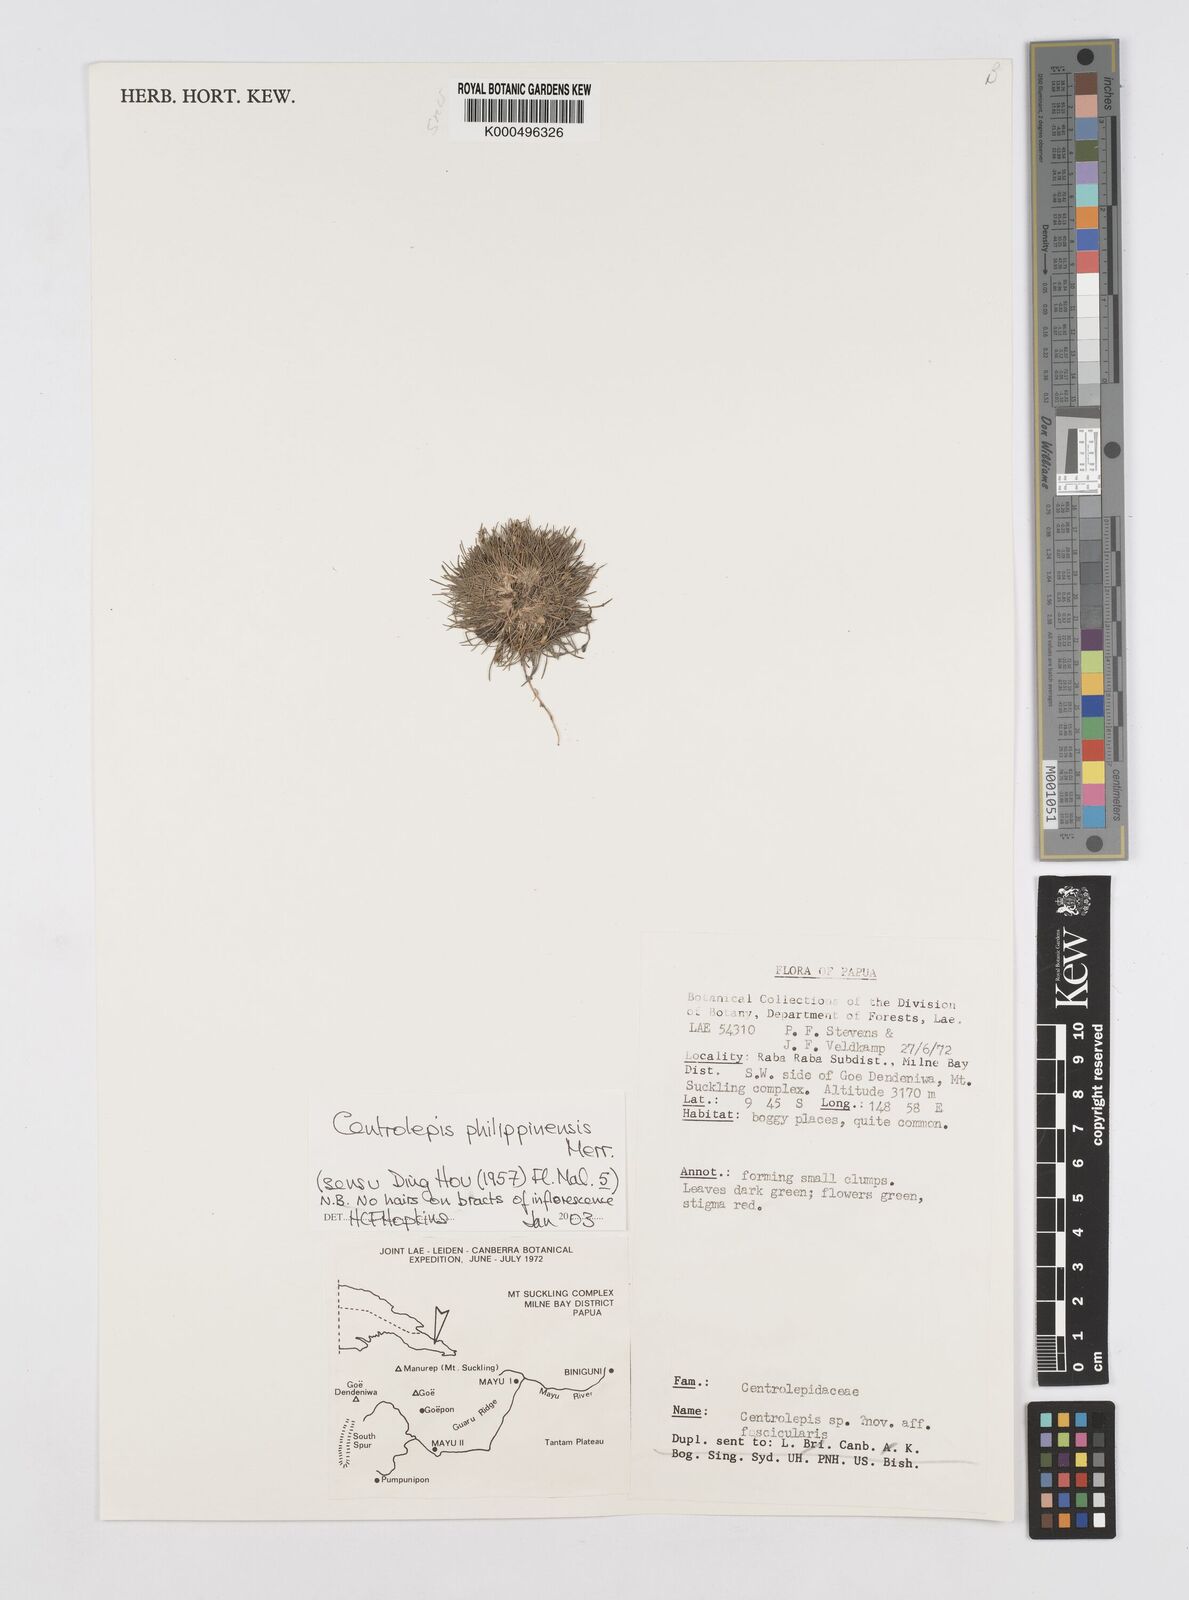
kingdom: Plantae
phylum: Tracheophyta
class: Liliopsida
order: Poales
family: Restionaceae
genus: Centrolepis
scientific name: Centrolepis philippinensis
